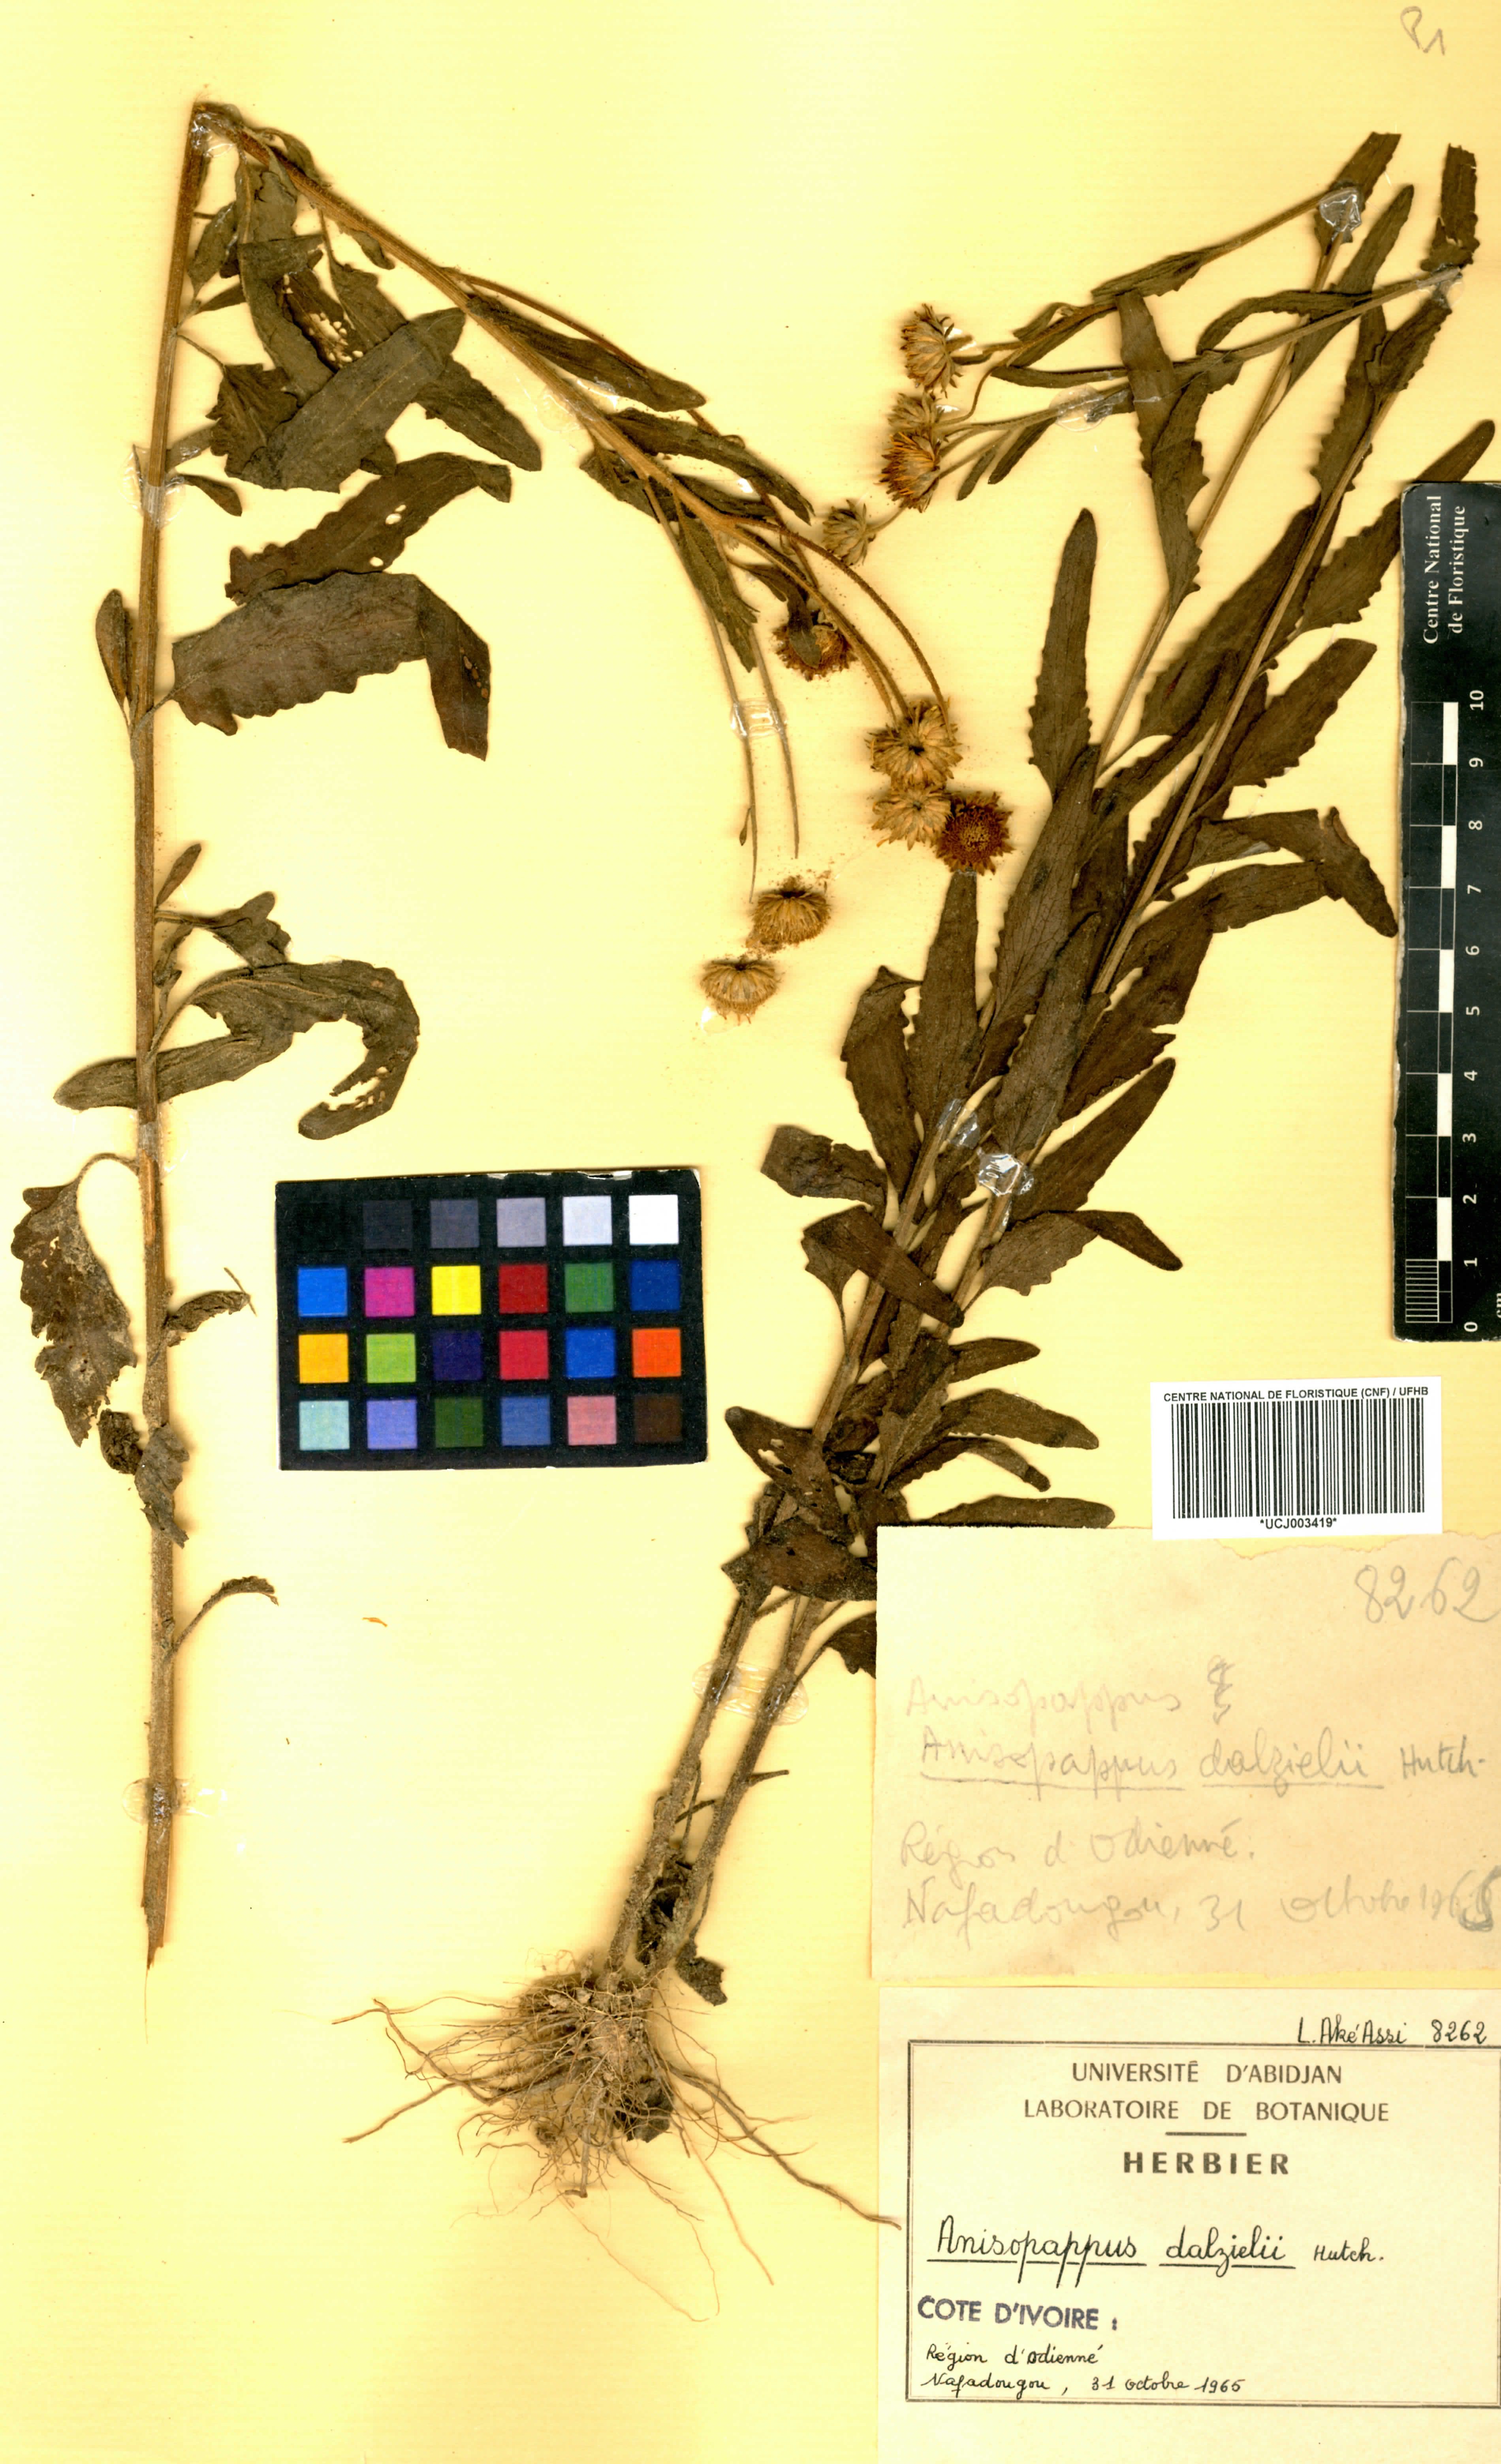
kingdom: Plantae
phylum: Tracheophyta
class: Magnoliopsida
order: Asterales
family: Asteraceae
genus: Anisopappus
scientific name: Anisopappus africanus
